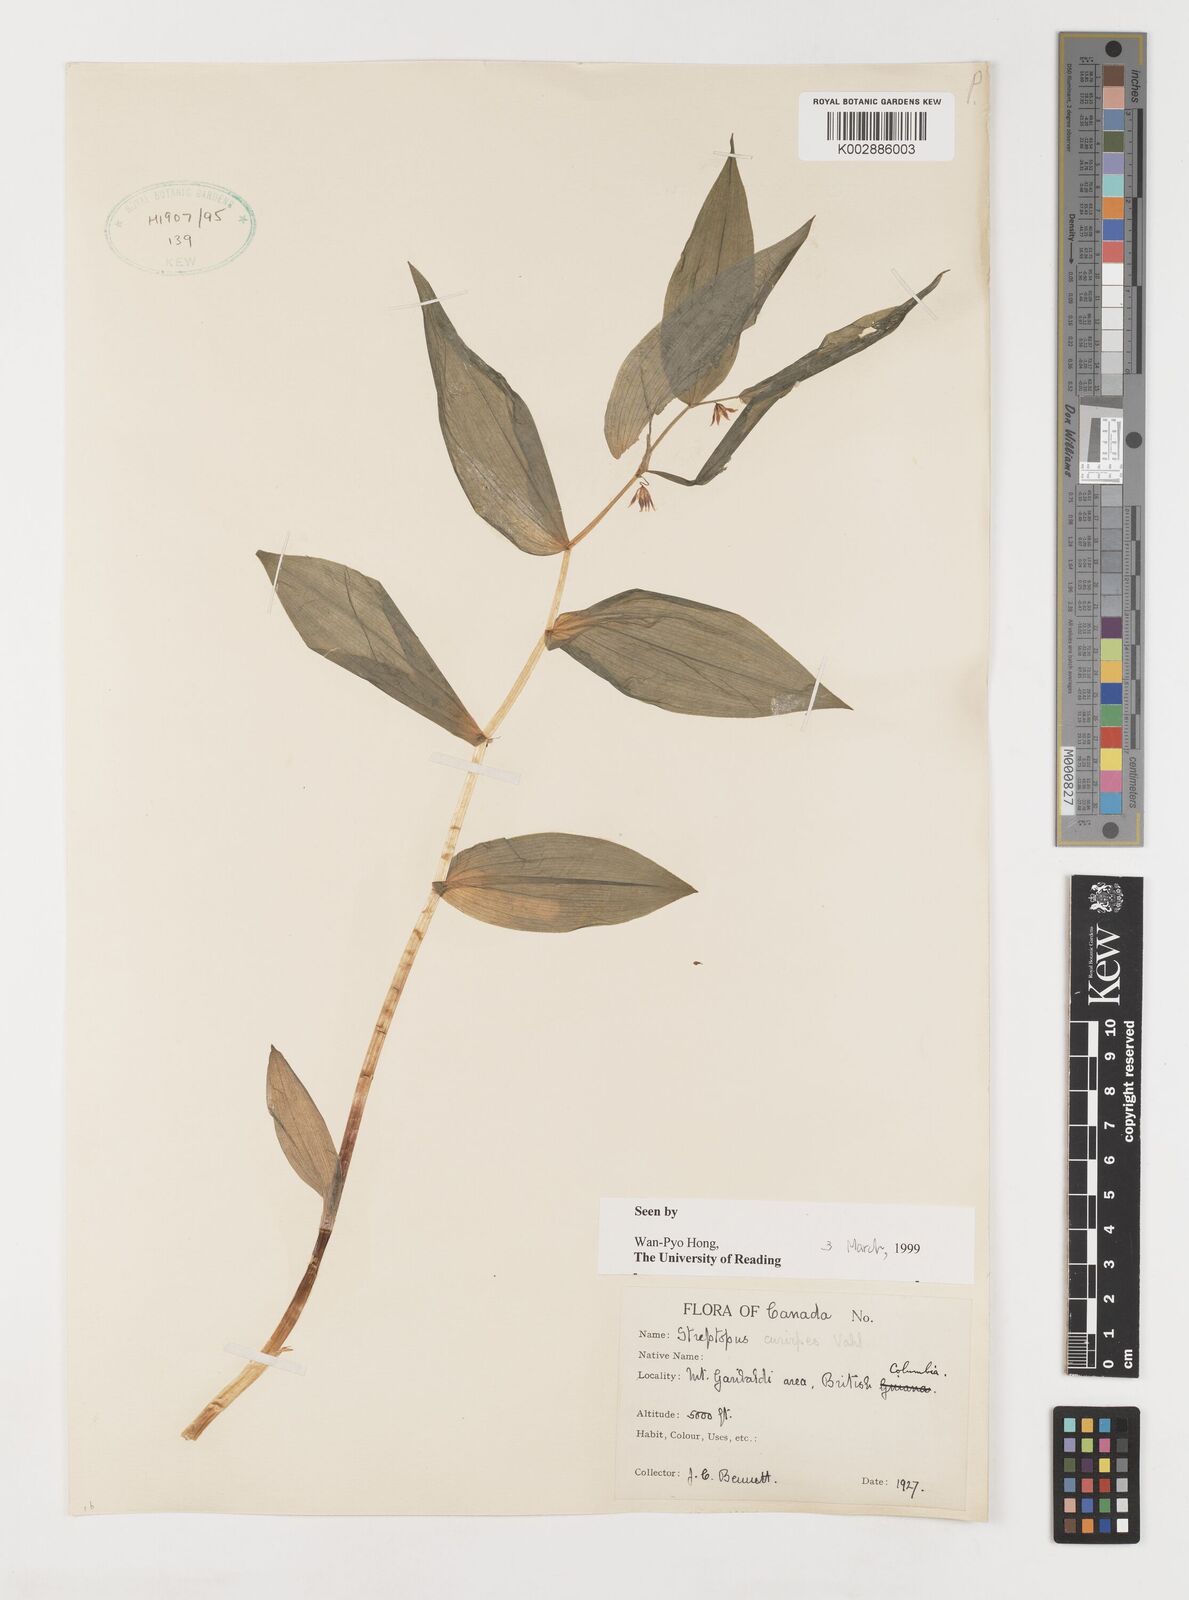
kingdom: Plantae
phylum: Tracheophyta
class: Liliopsida
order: Liliales
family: Liliaceae
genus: Streptopus
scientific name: Streptopus lanceolatus
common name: Rose mandarin
